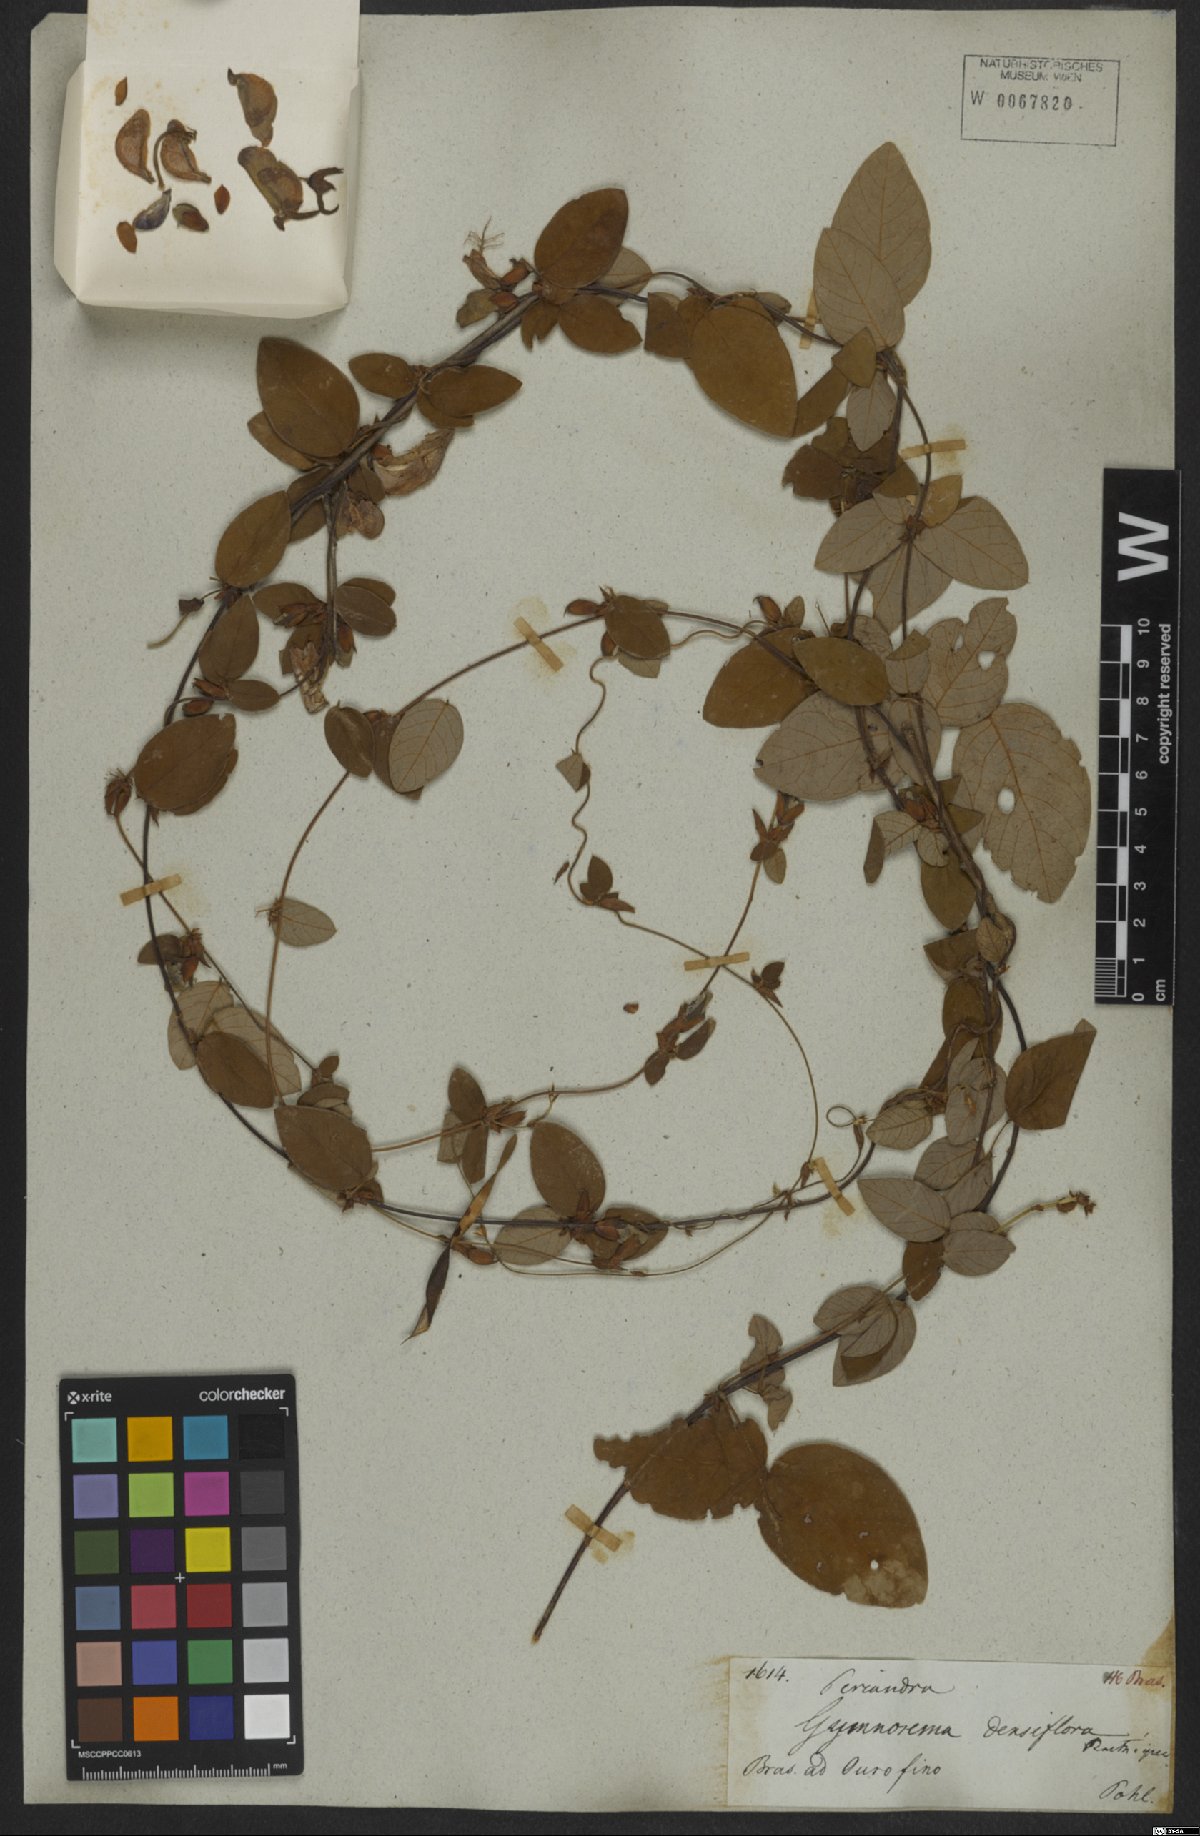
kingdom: Plantae
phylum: Tracheophyta
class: Magnoliopsida
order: Fabales
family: Fabaceae
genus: Periandra
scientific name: Periandra densiflora
